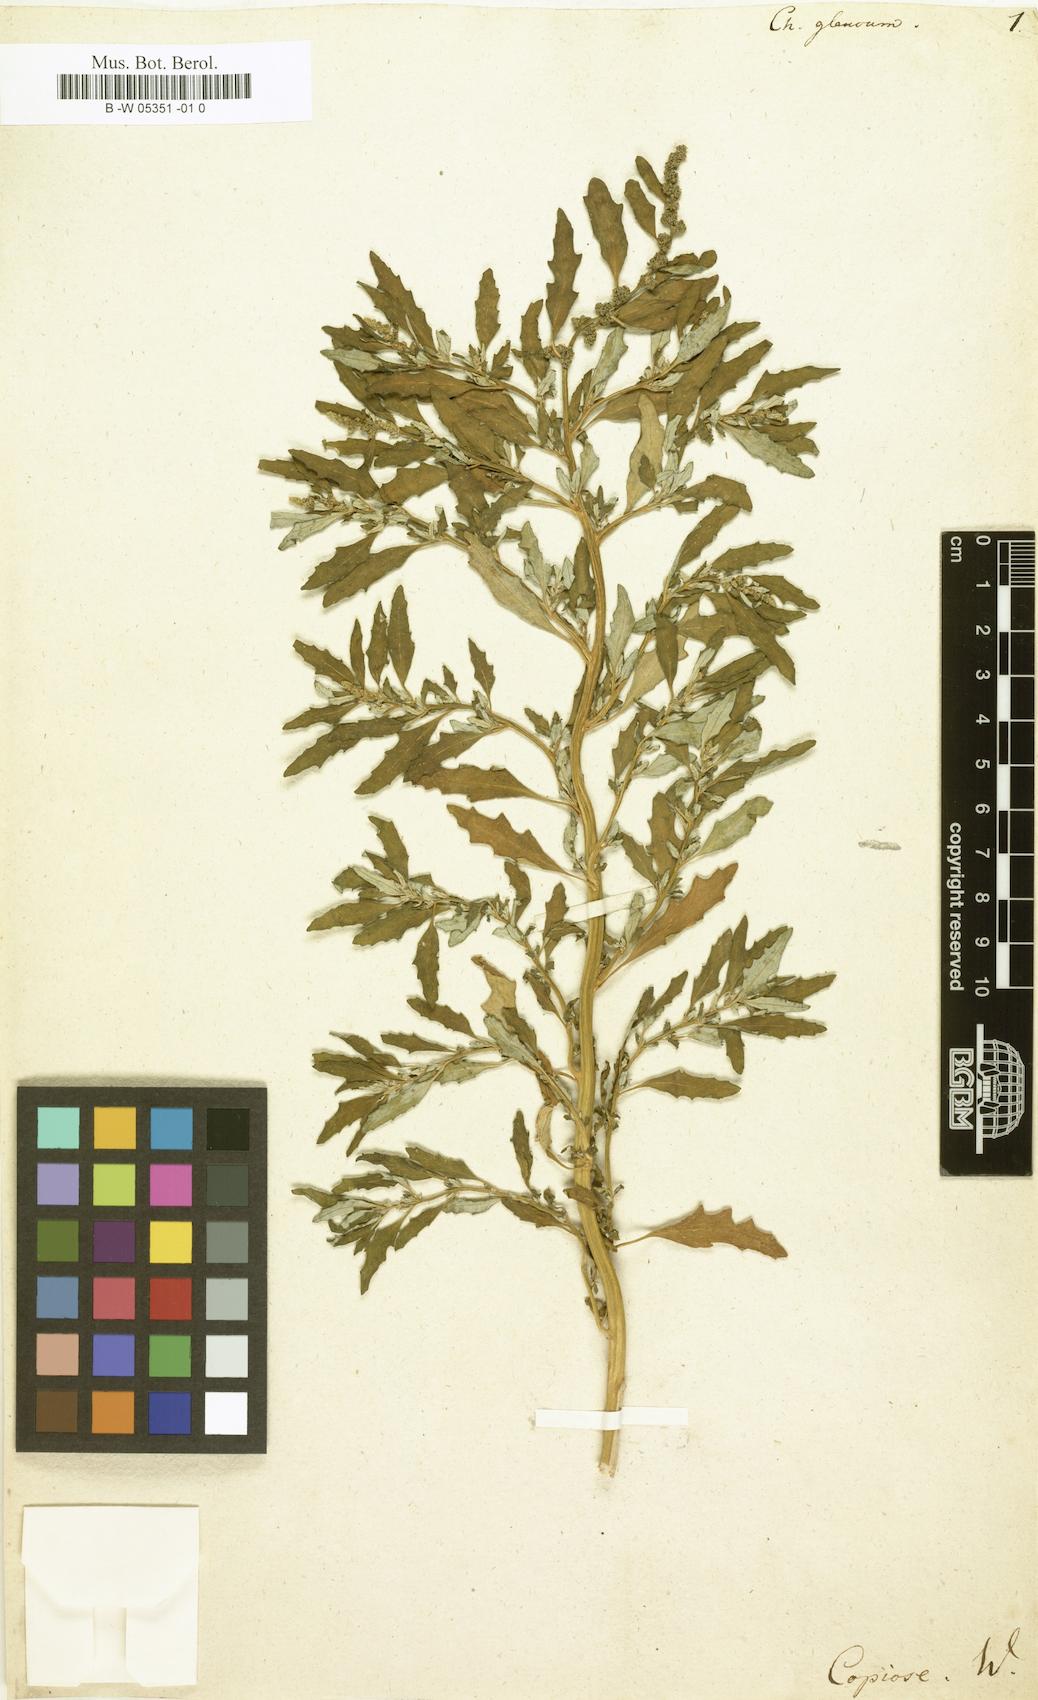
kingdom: Plantae
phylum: Tracheophyta
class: Magnoliopsida
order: Caryophyllales
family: Amaranthaceae
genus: Oxybasis
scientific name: Oxybasis glauca
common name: Glaucous goosefoot
